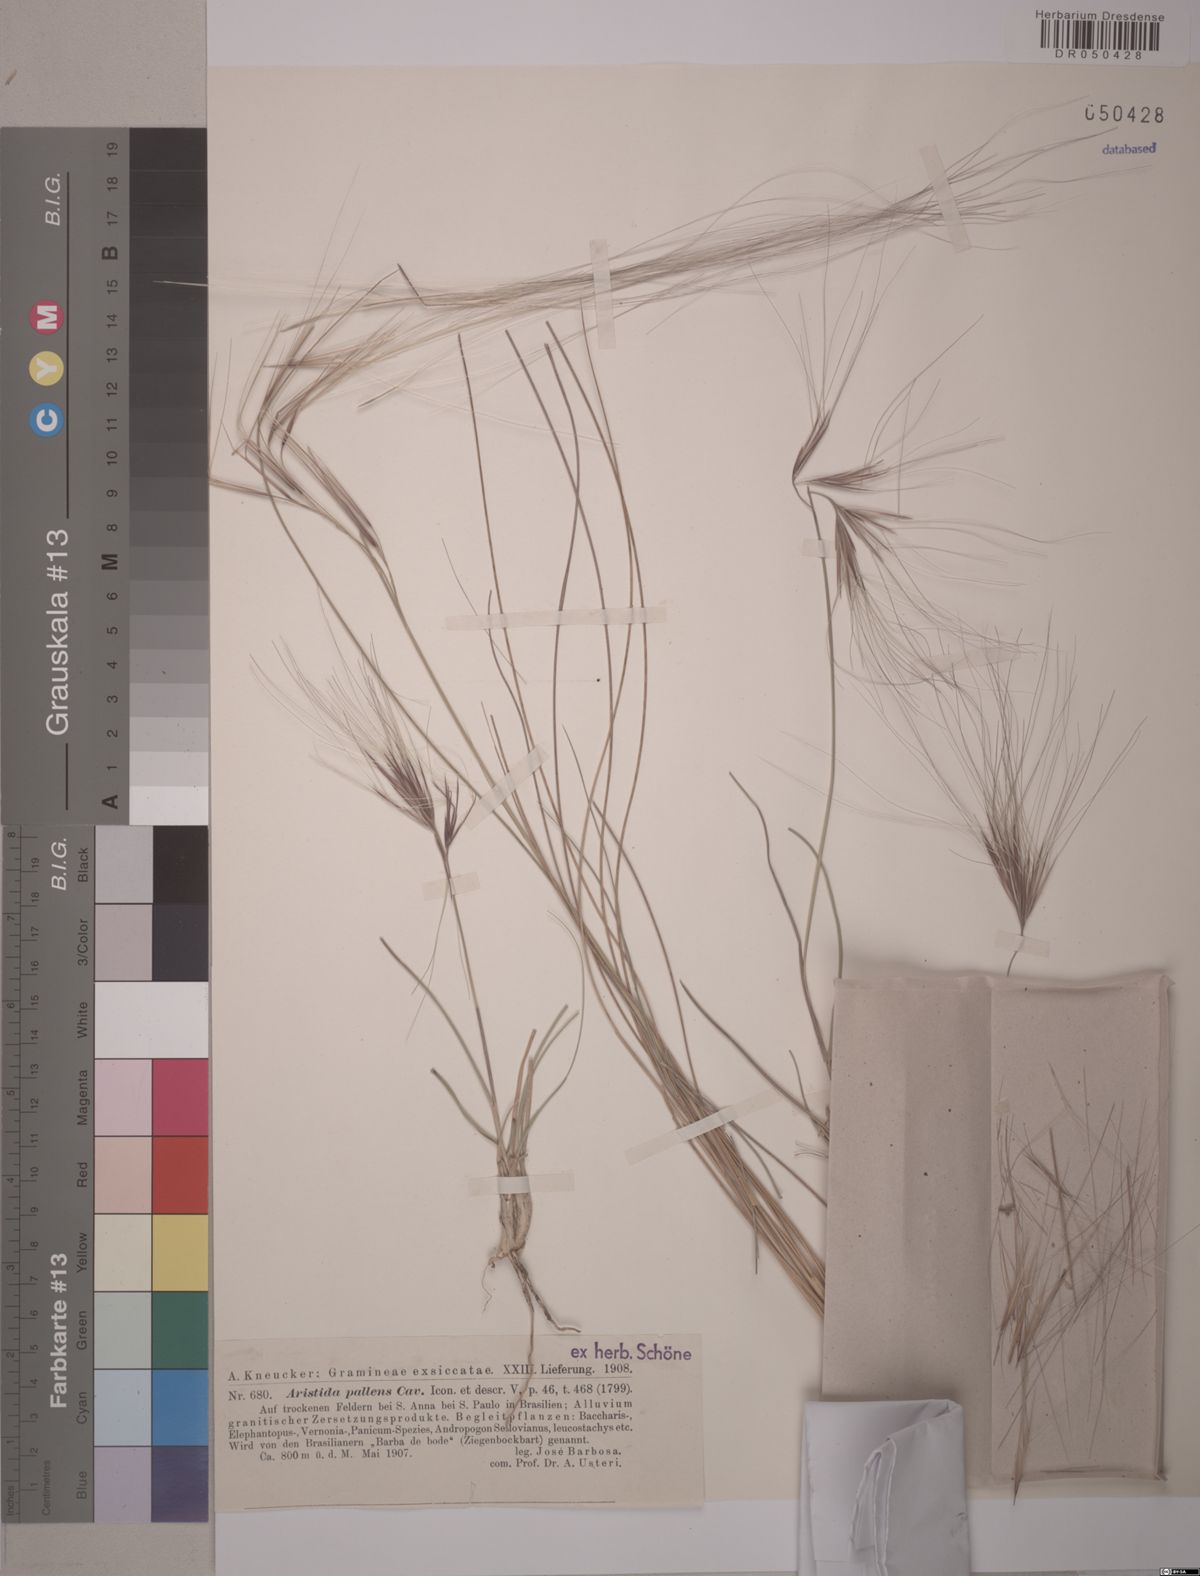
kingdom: Plantae
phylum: Tracheophyta
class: Liliopsida
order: Poales
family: Poaceae
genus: Aristida
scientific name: Aristida pallens
